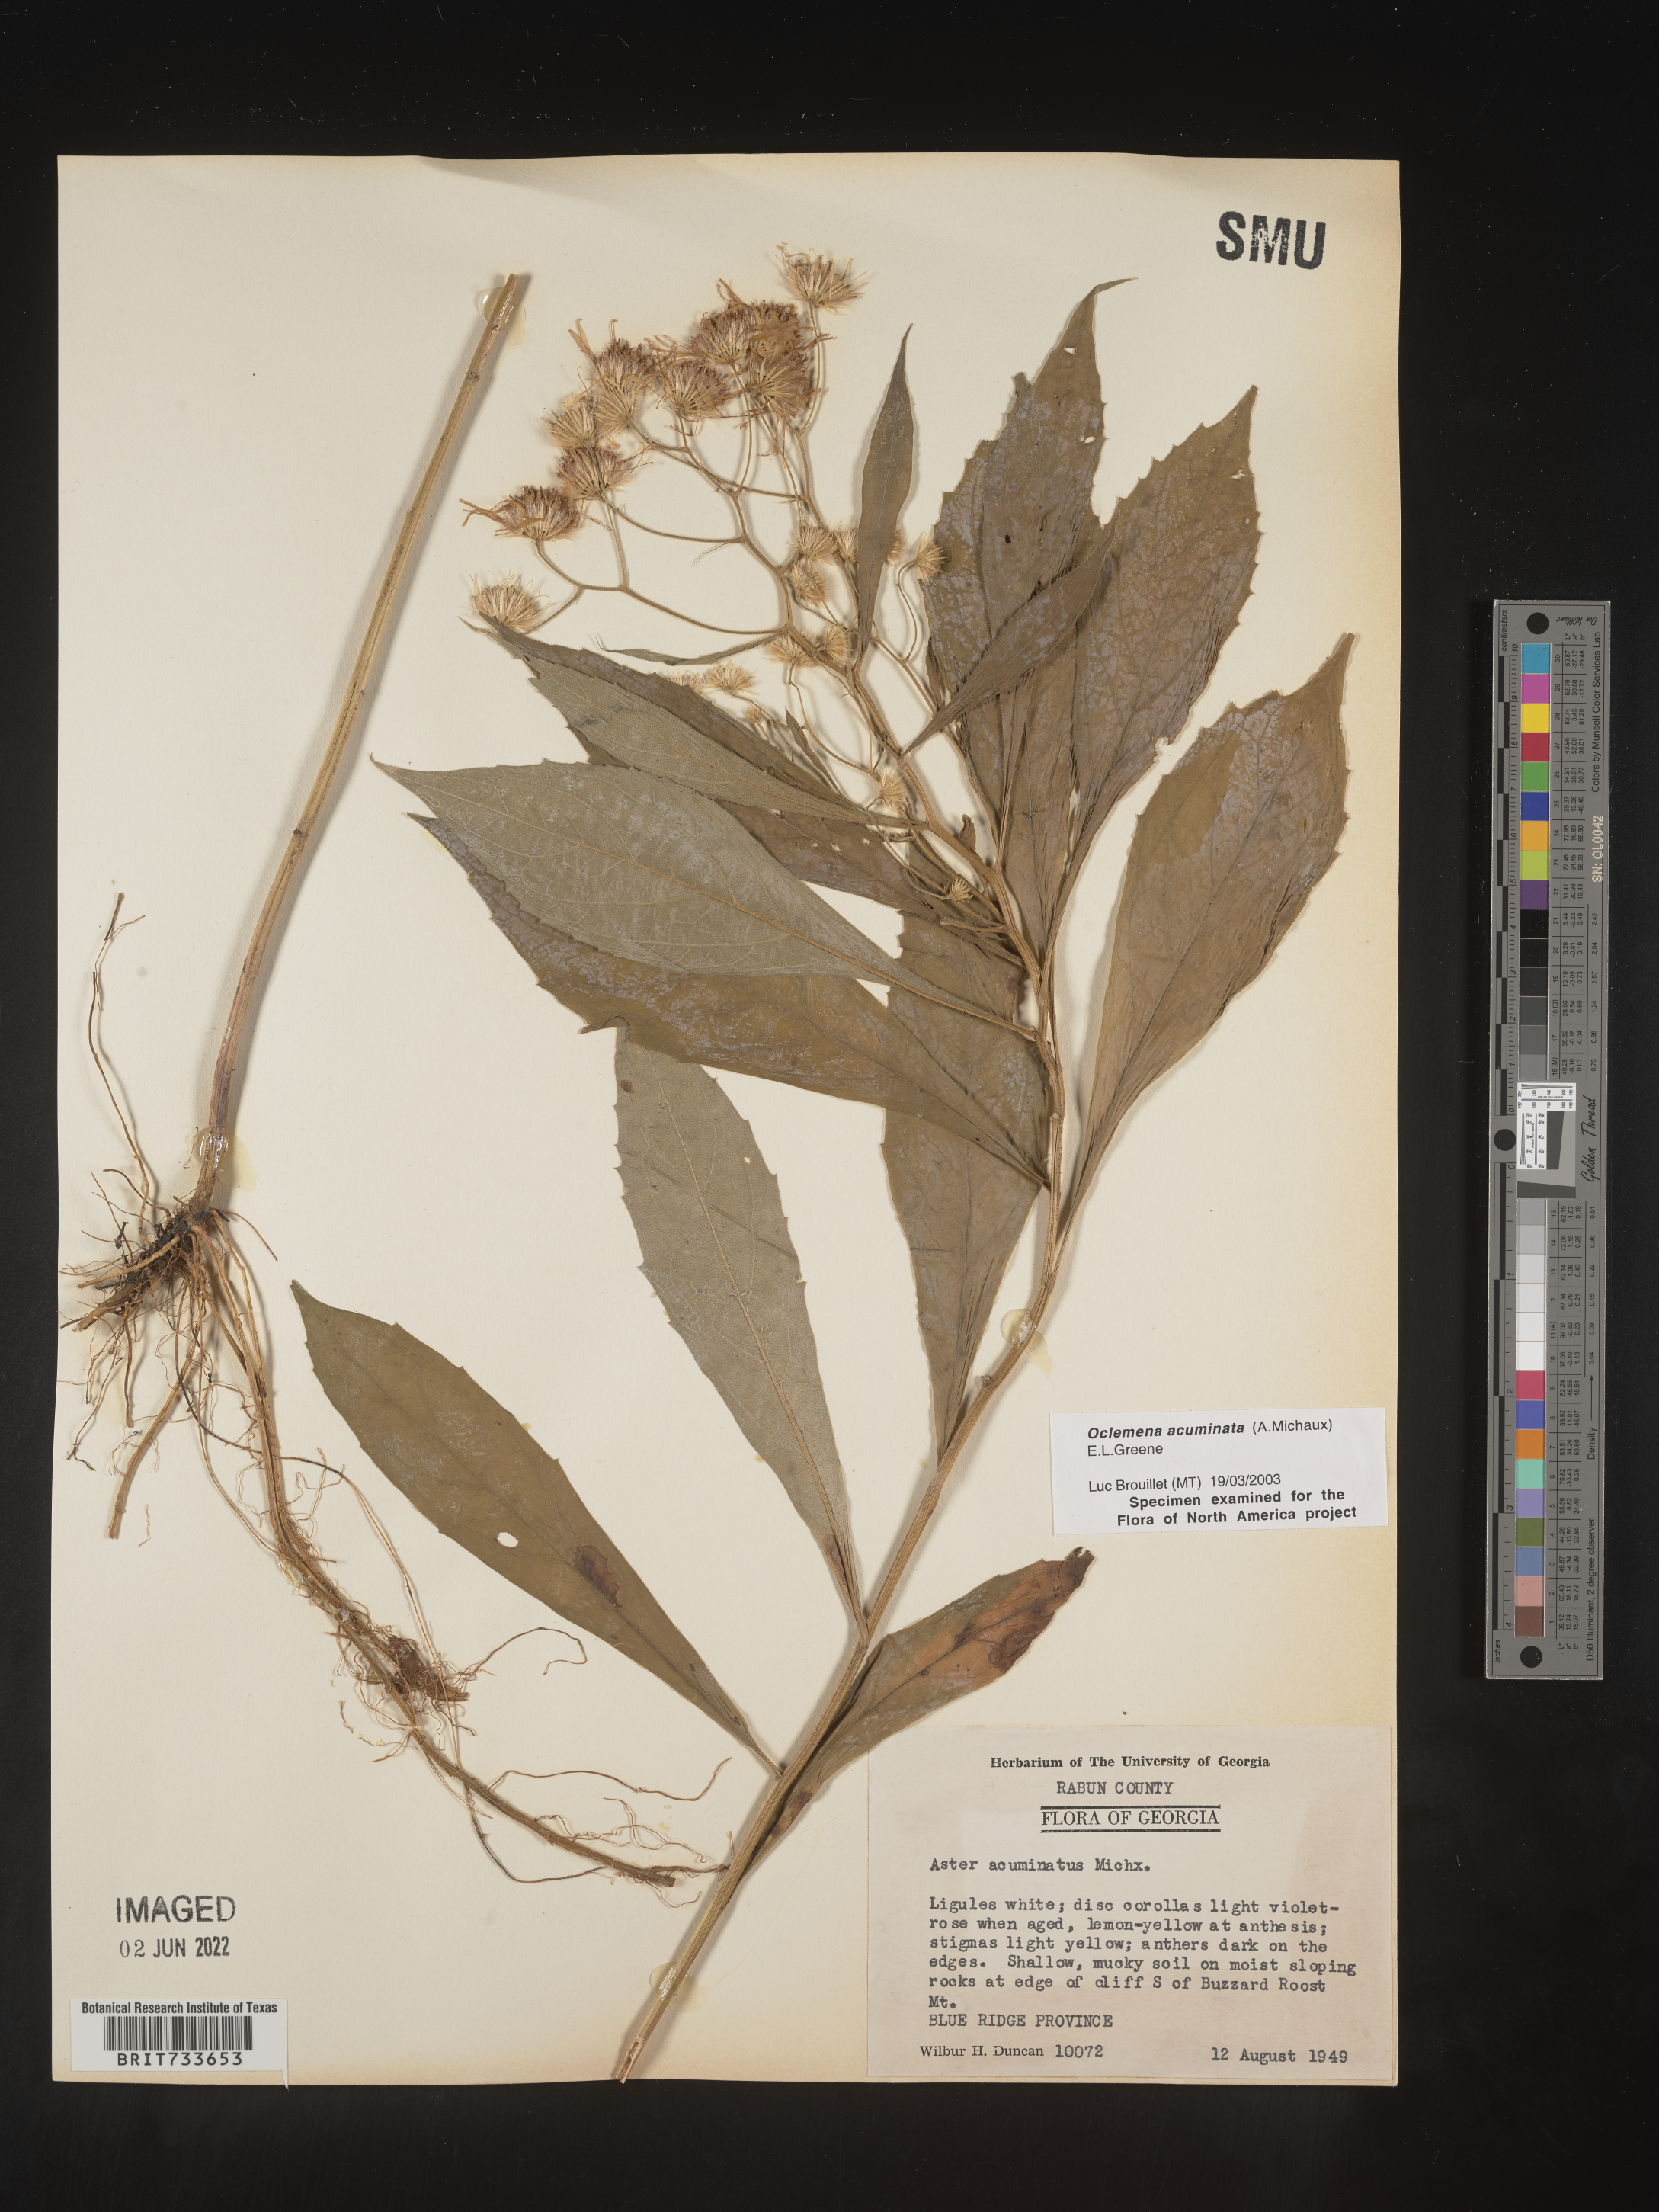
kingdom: Plantae
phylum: Tracheophyta
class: Magnoliopsida
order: Asterales
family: Asteraceae
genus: Oclemena
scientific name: Oclemena acuminata
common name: Mountain aster
